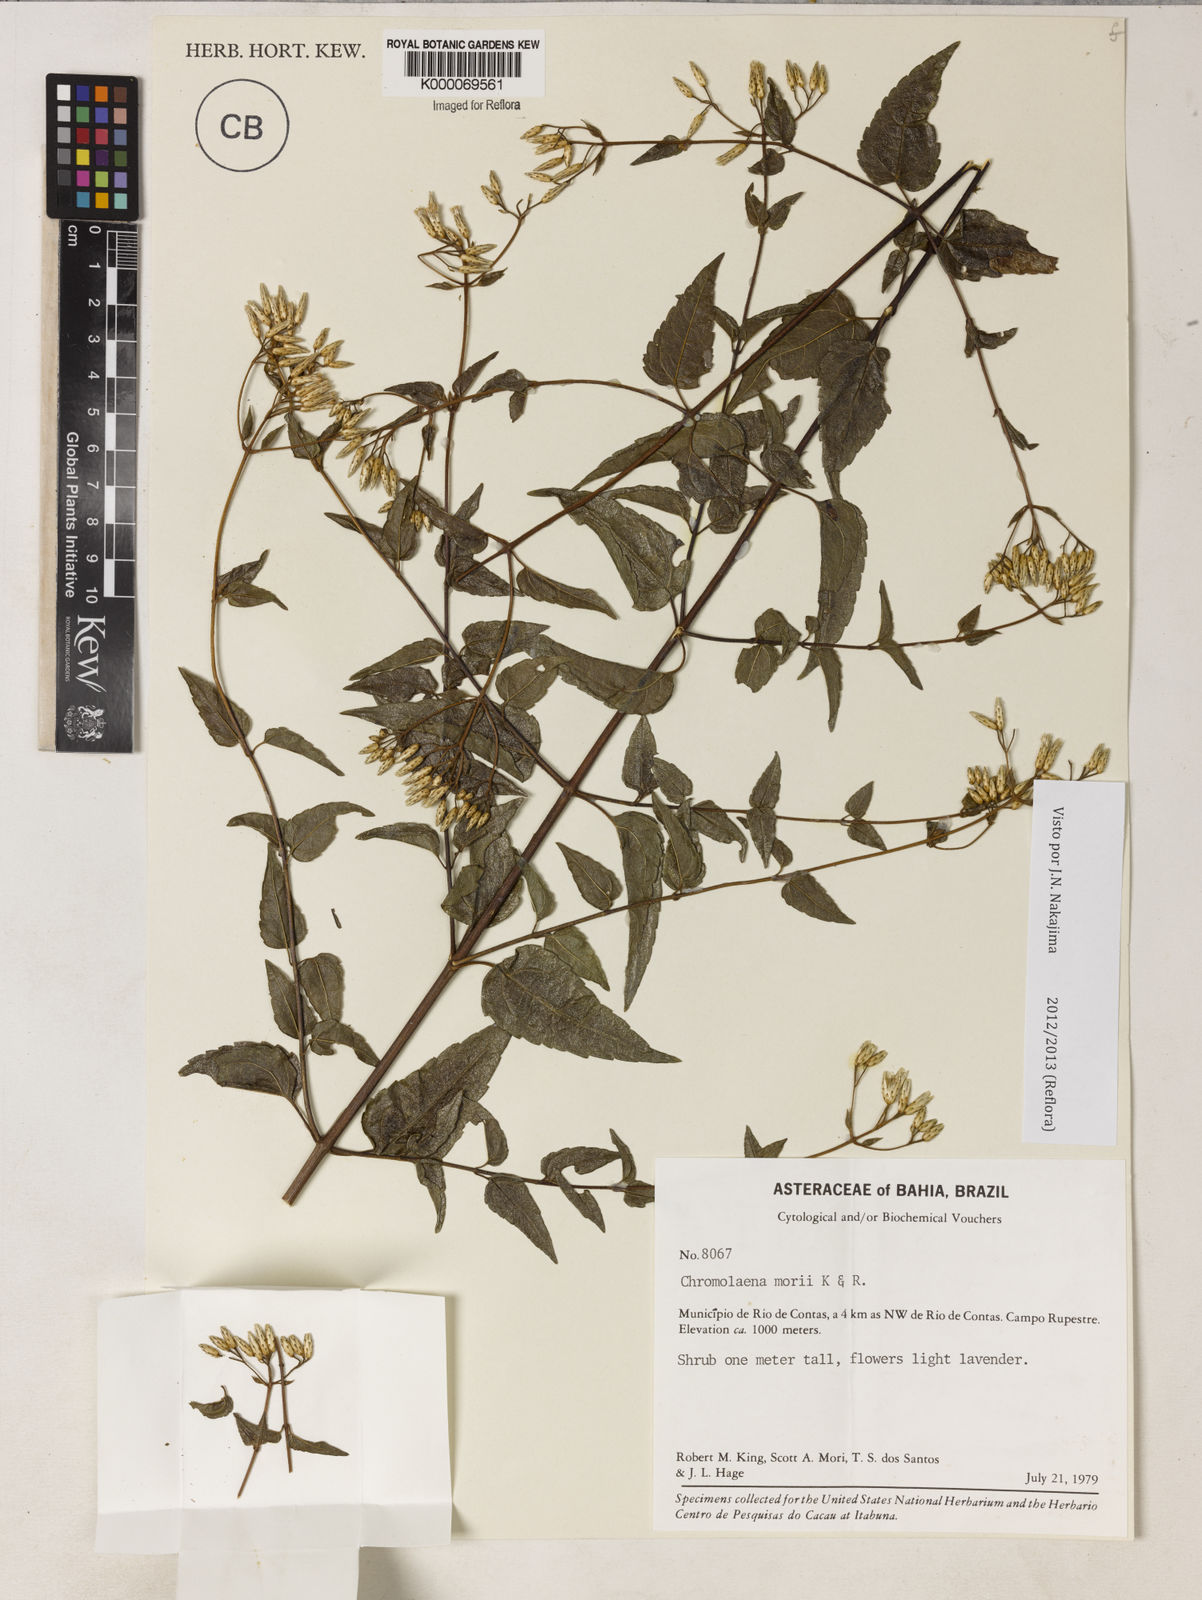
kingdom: Plantae
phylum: Tracheophyta
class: Magnoliopsida
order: Asterales
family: Asteraceae
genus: Chromolaena
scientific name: Chromolaena morii
